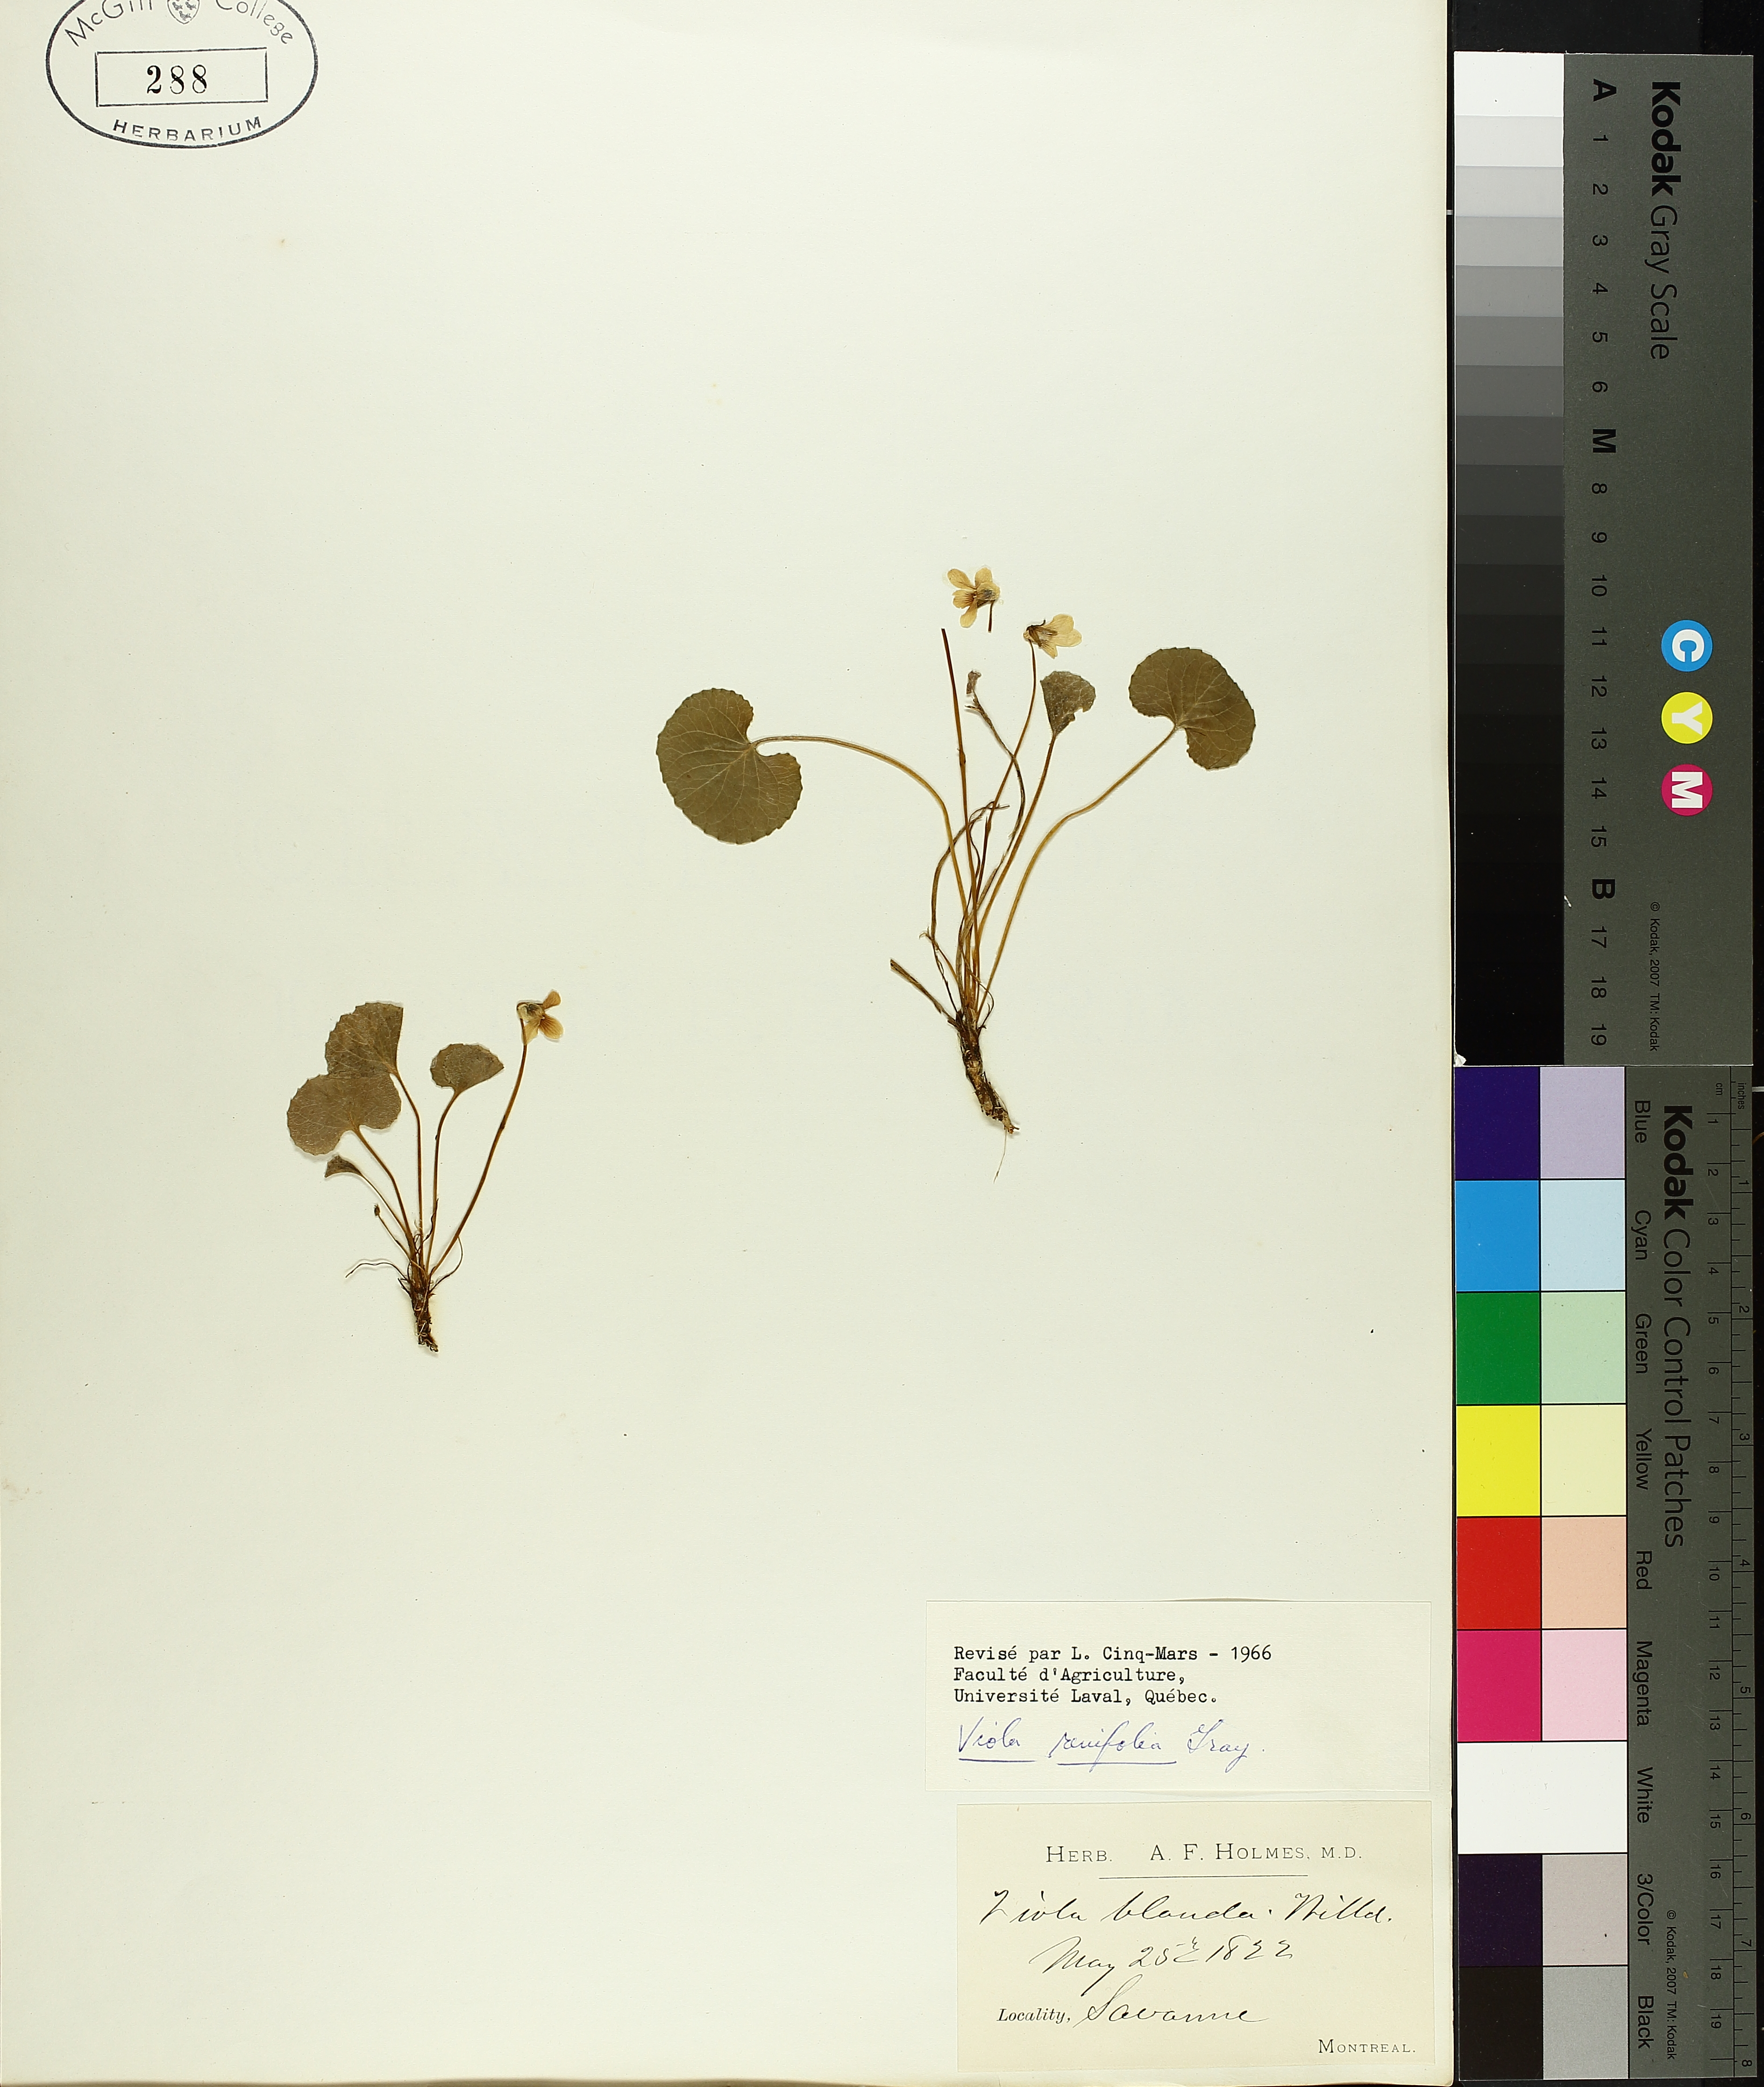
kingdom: Plantae
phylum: Tracheophyta
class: Magnoliopsida
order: Malpighiales
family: Violaceae
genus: Viola
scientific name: Viola renifolia
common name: Kidney-leaf violet
